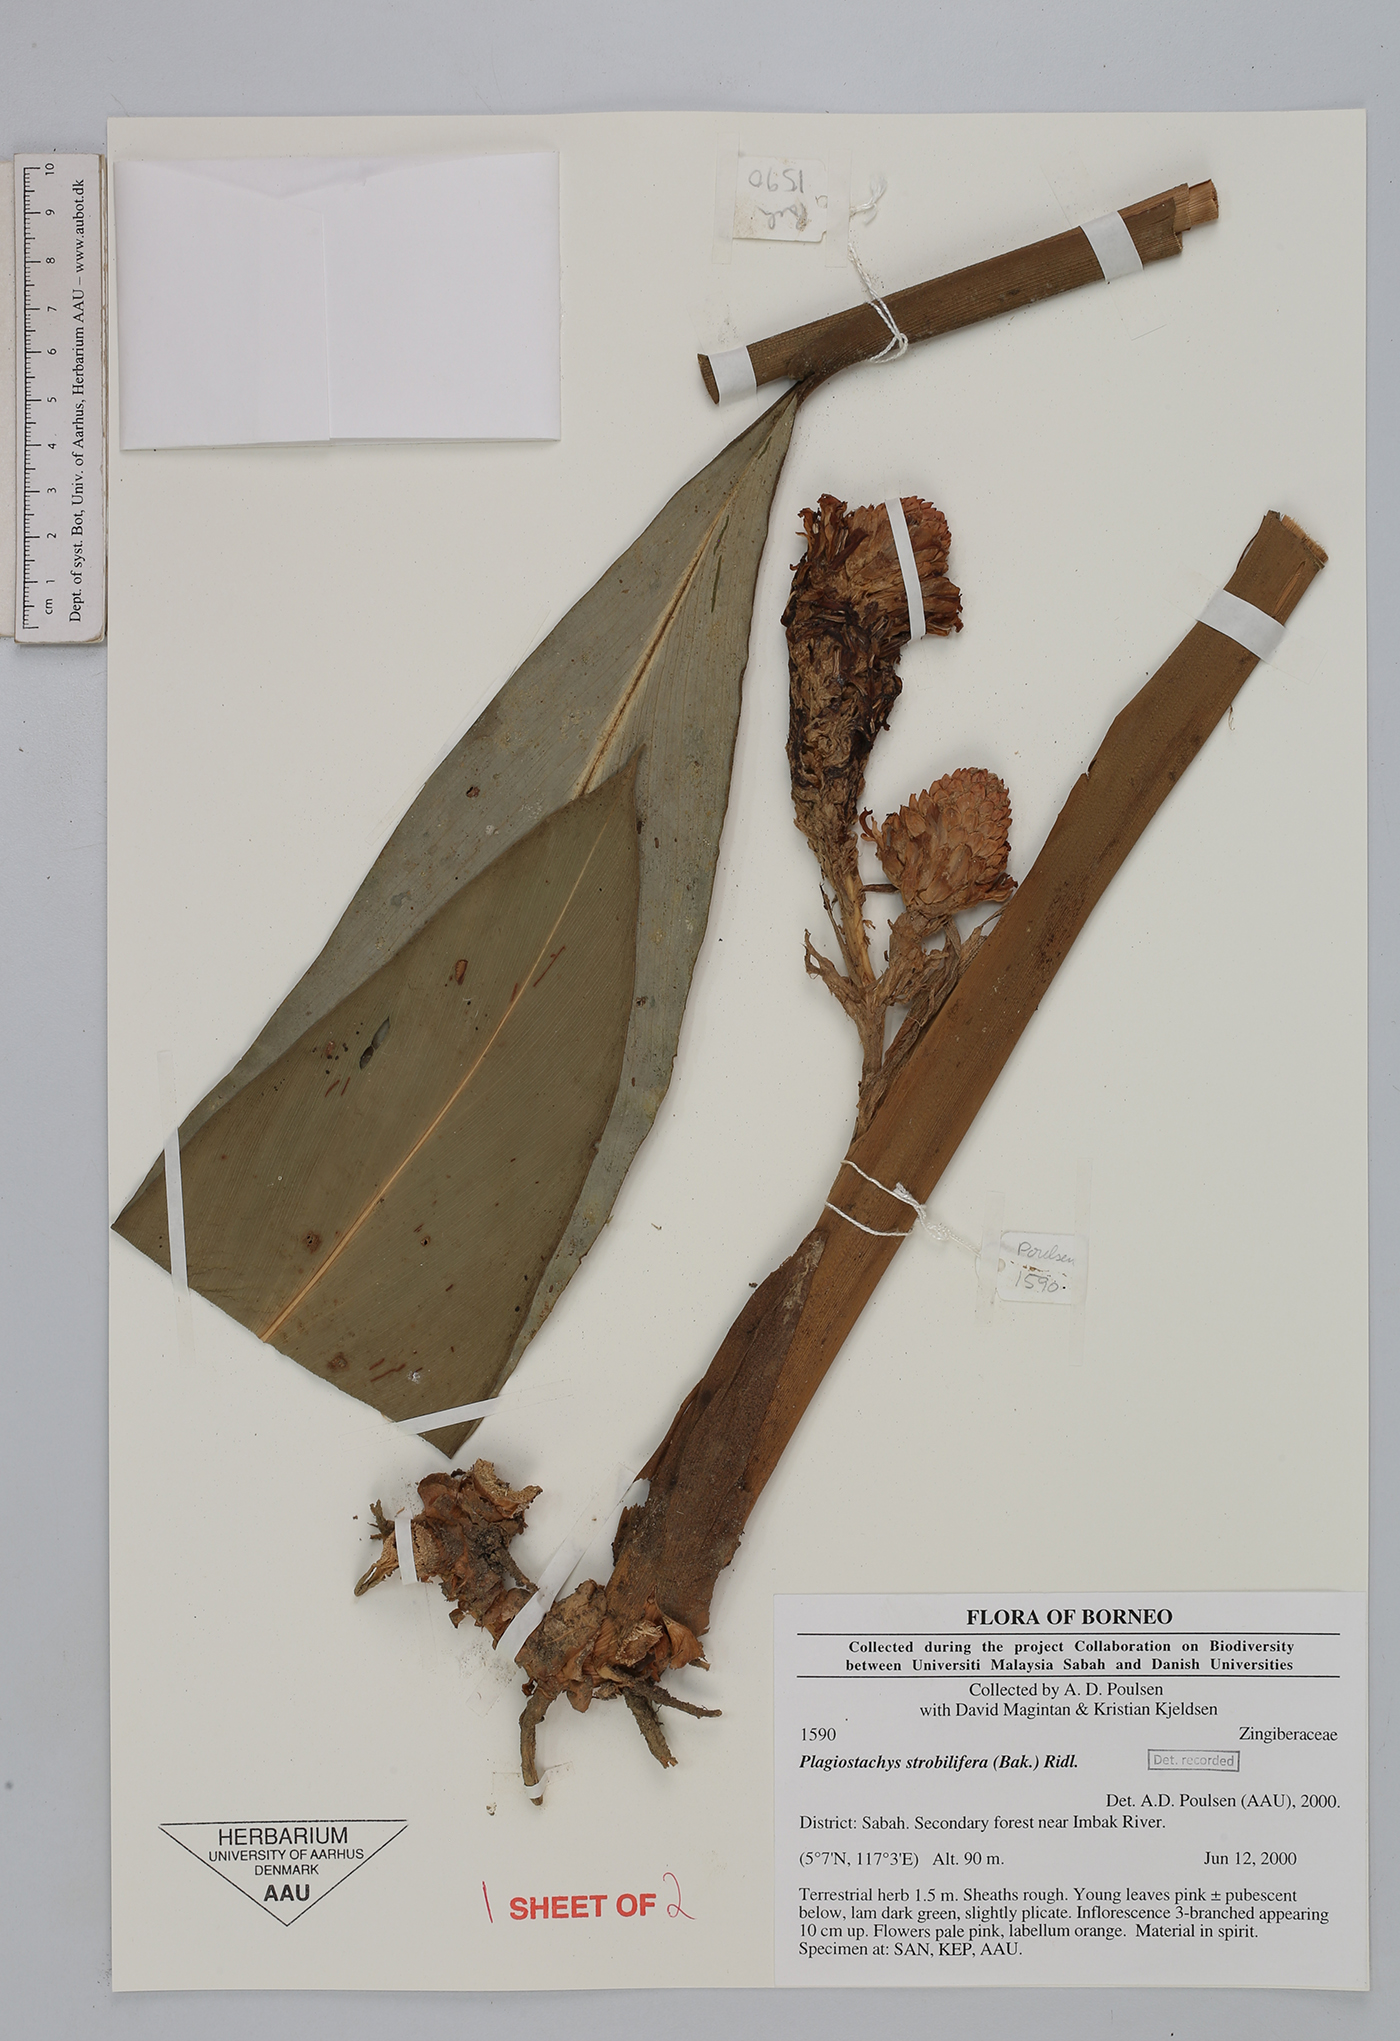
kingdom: Plantae
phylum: Tracheophyta
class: Liliopsida
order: Zingiberales
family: Zingiberaceae
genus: Plagiostachys
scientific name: Plagiostachys strobilifera
